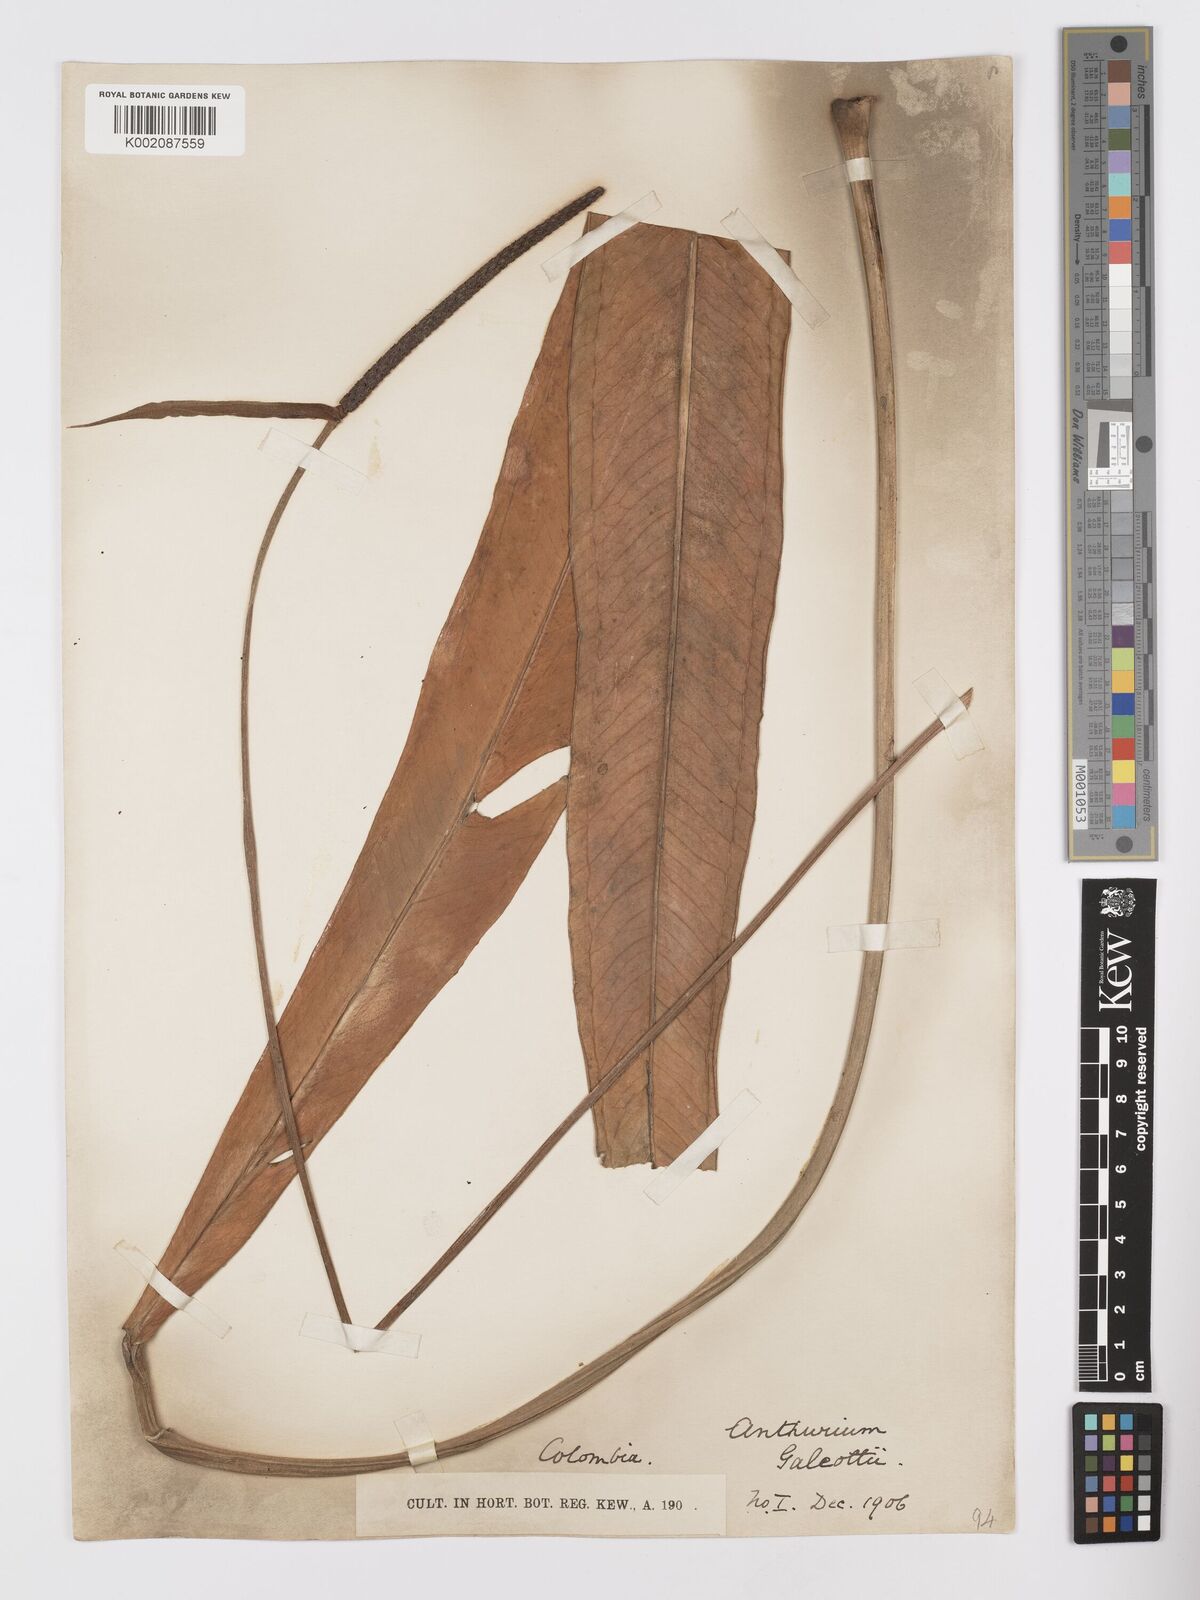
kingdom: Plantae
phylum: Tracheophyta
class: Liliopsida
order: Alismatales
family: Araceae
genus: Anthurium
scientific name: Anthurium galeottii
